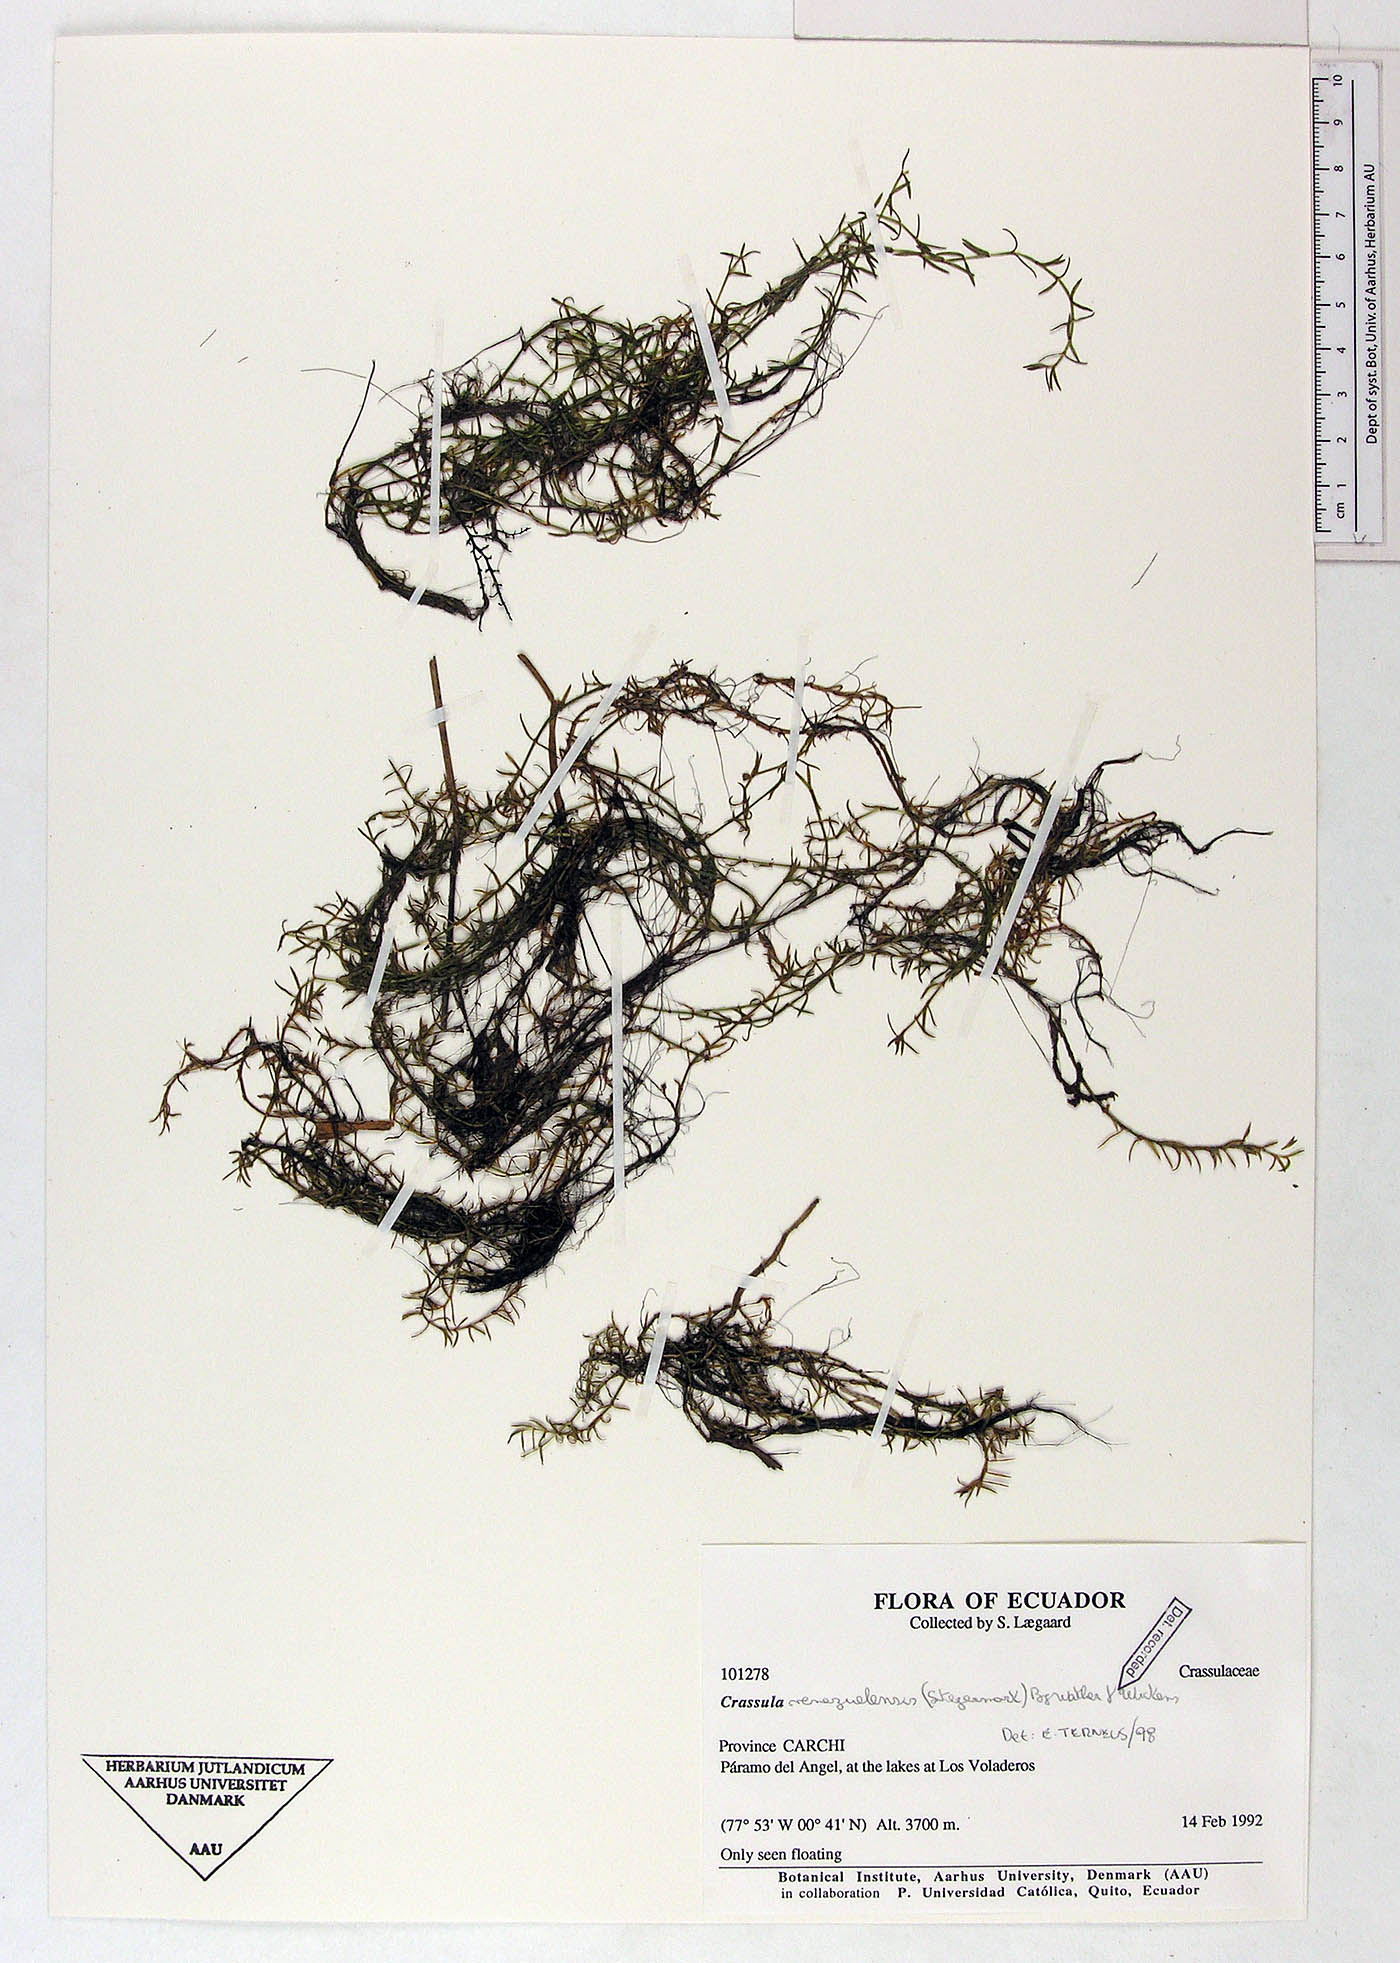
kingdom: Plantae
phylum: Tracheophyta
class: Magnoliopsida
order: Saxifragales
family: Crassulaceae
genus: Crassula
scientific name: Crassula venezuelensis
